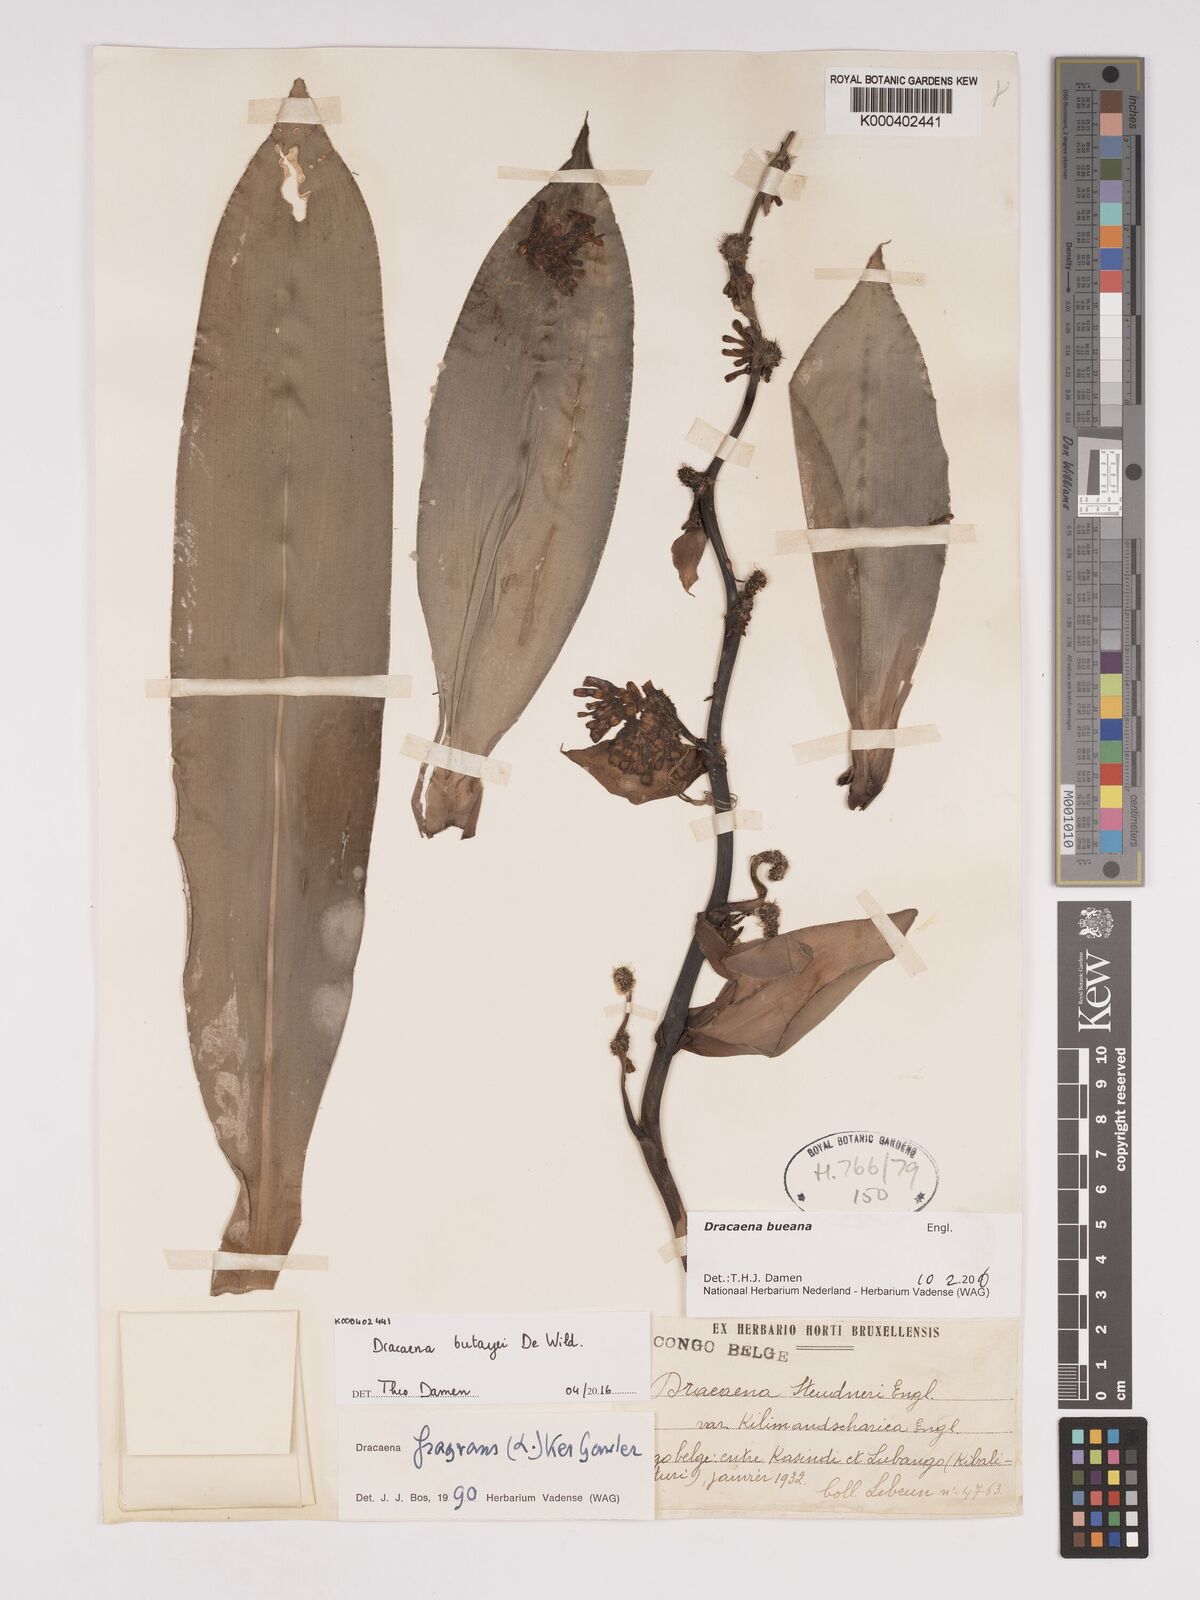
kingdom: Plantae
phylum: Tracheophyta
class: Liliopsida
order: Asparagales
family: Asparagaceae
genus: Dracaena
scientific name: Dracaena fragrans
